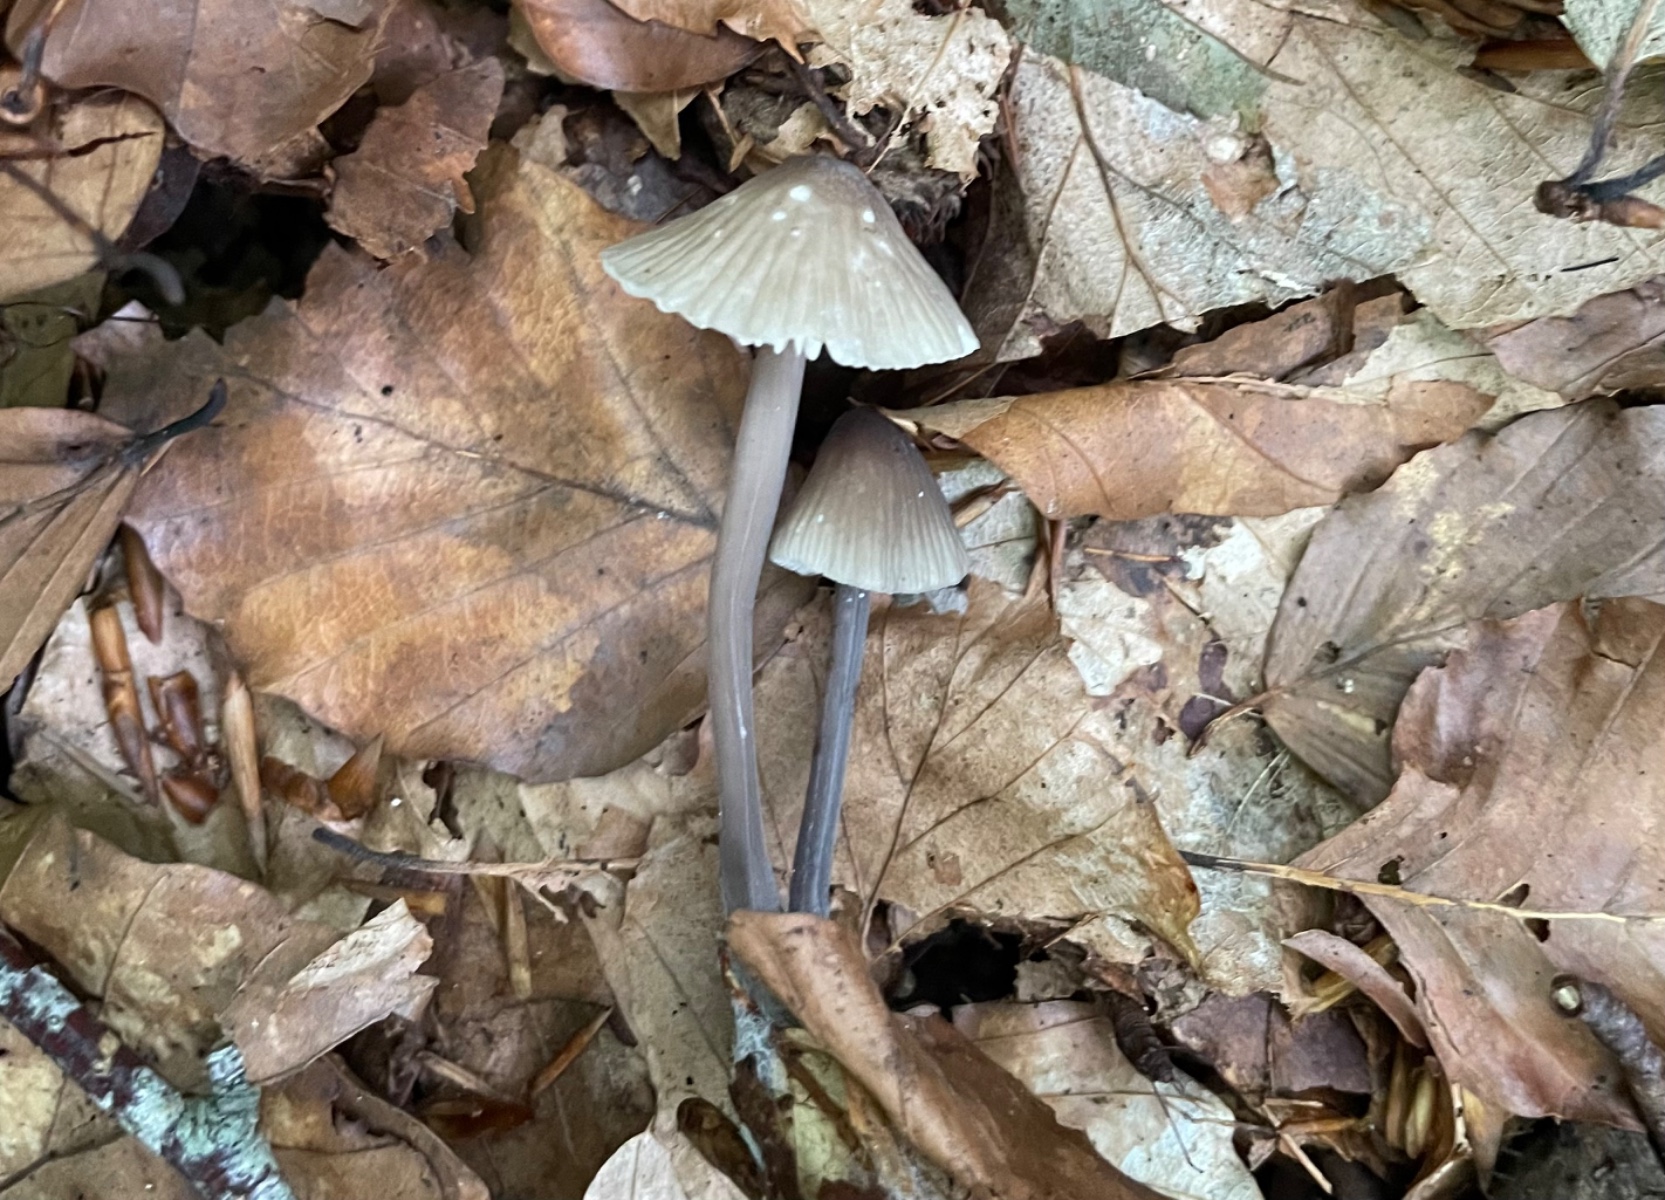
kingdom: Fungi
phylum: Basidiomycota
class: Agaricomycetes
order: Agaricales
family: Mycenaceae
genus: Mycena
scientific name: Mycena galopus
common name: hvidmælket huesvamp
